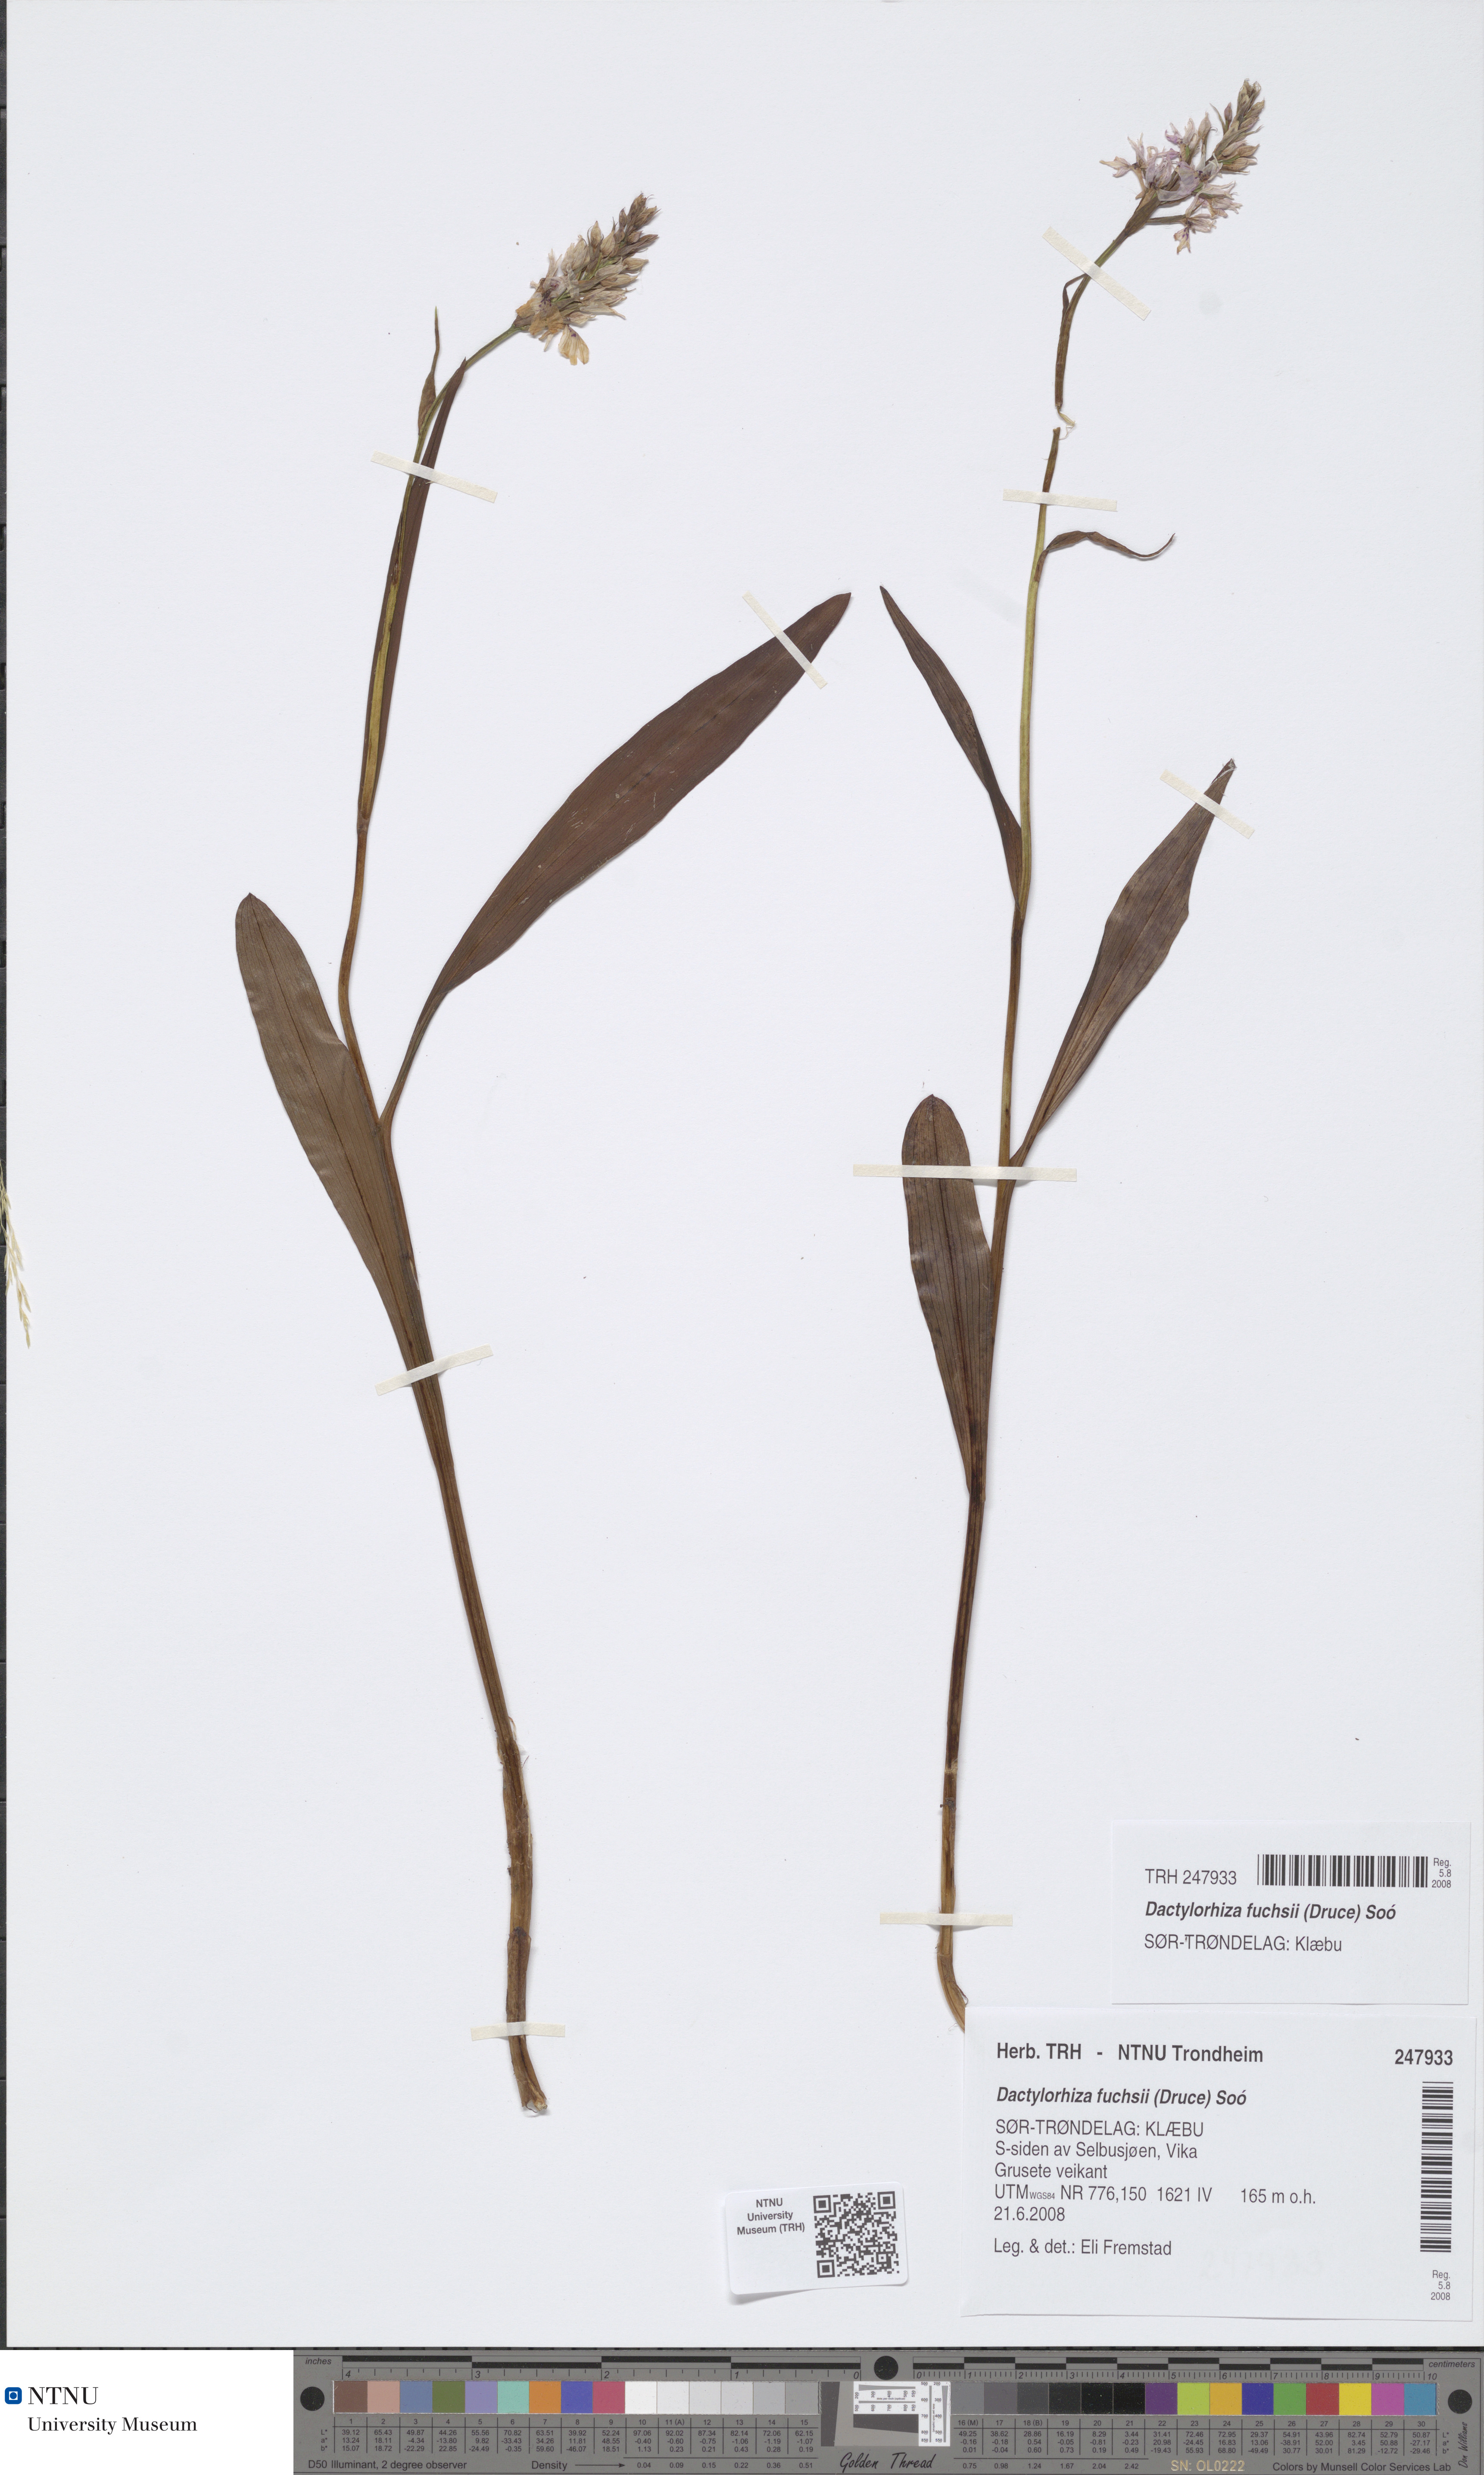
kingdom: Plantae
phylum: Tracheophyta
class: Liliopsida
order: Asparagales
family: Orchidaceae
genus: Dactylorhiza
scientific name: Dactylorhiza maculata
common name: Heath spotted-orchid
